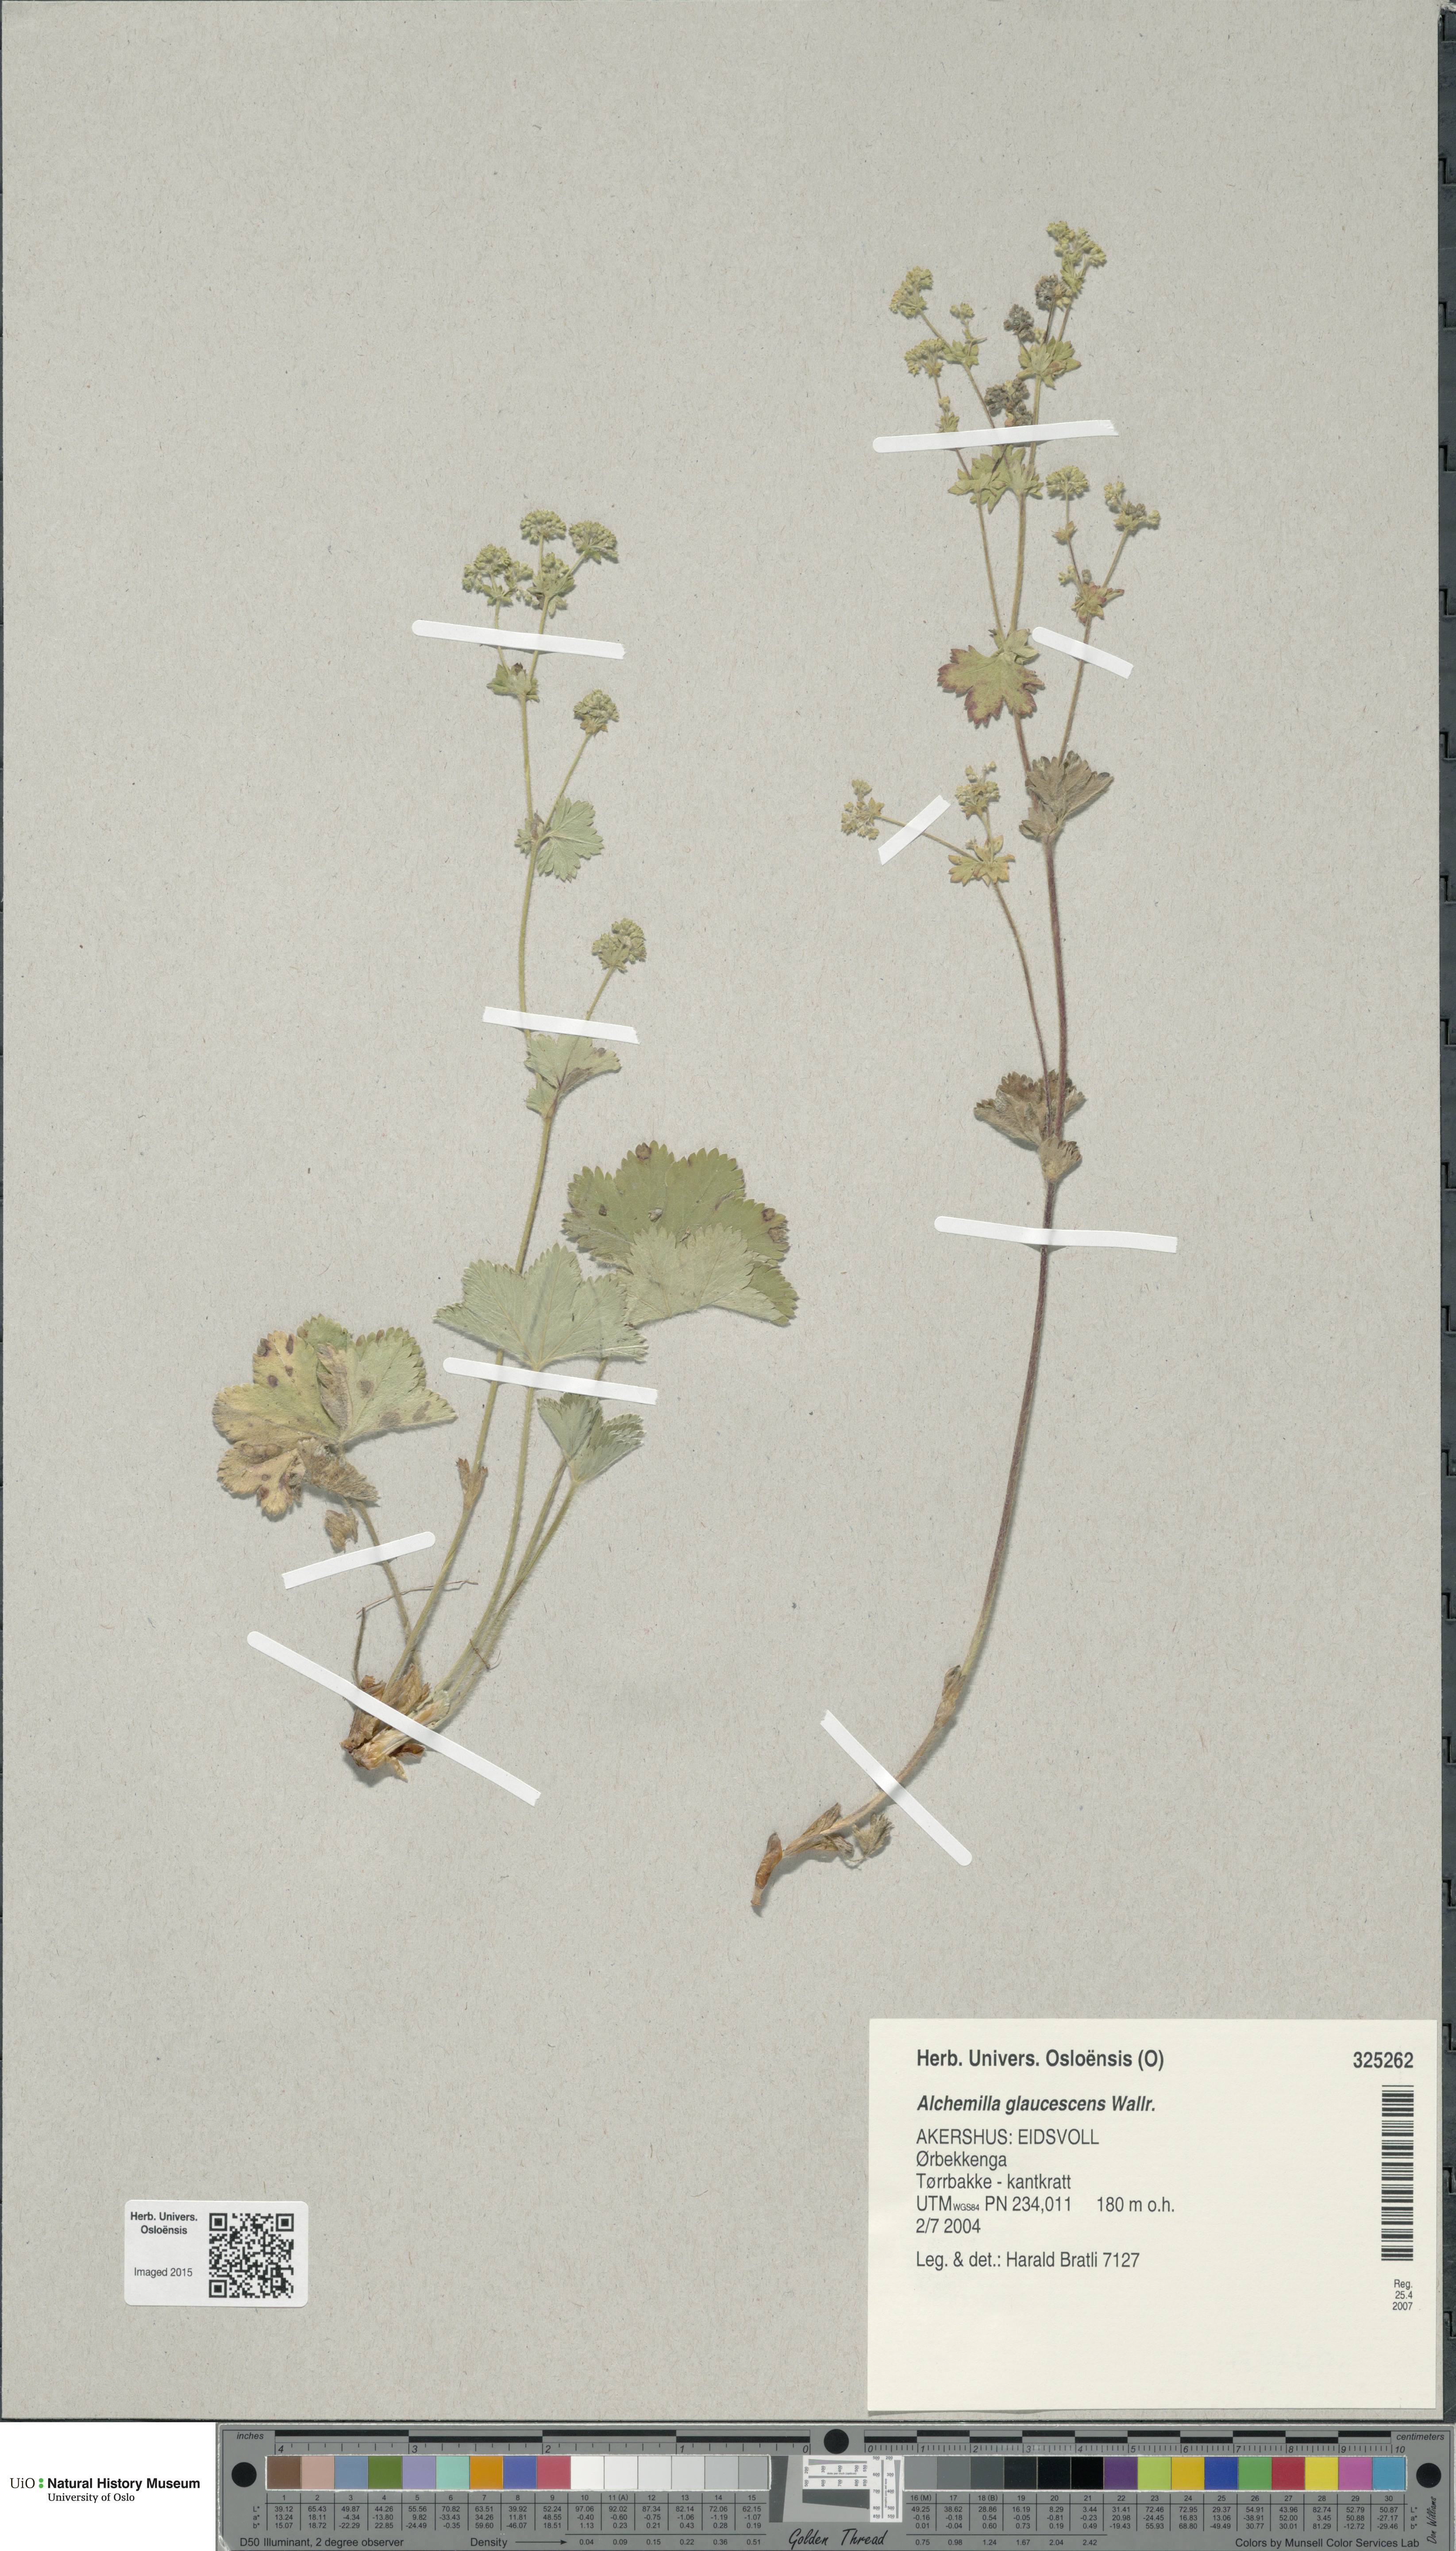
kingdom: Plantae
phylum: Tracheophyta
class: Magnoliopsida
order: Rosales
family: Rosaceae
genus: Alchemilla
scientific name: Alchemilla glaucescens
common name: Silky lady's mantle
